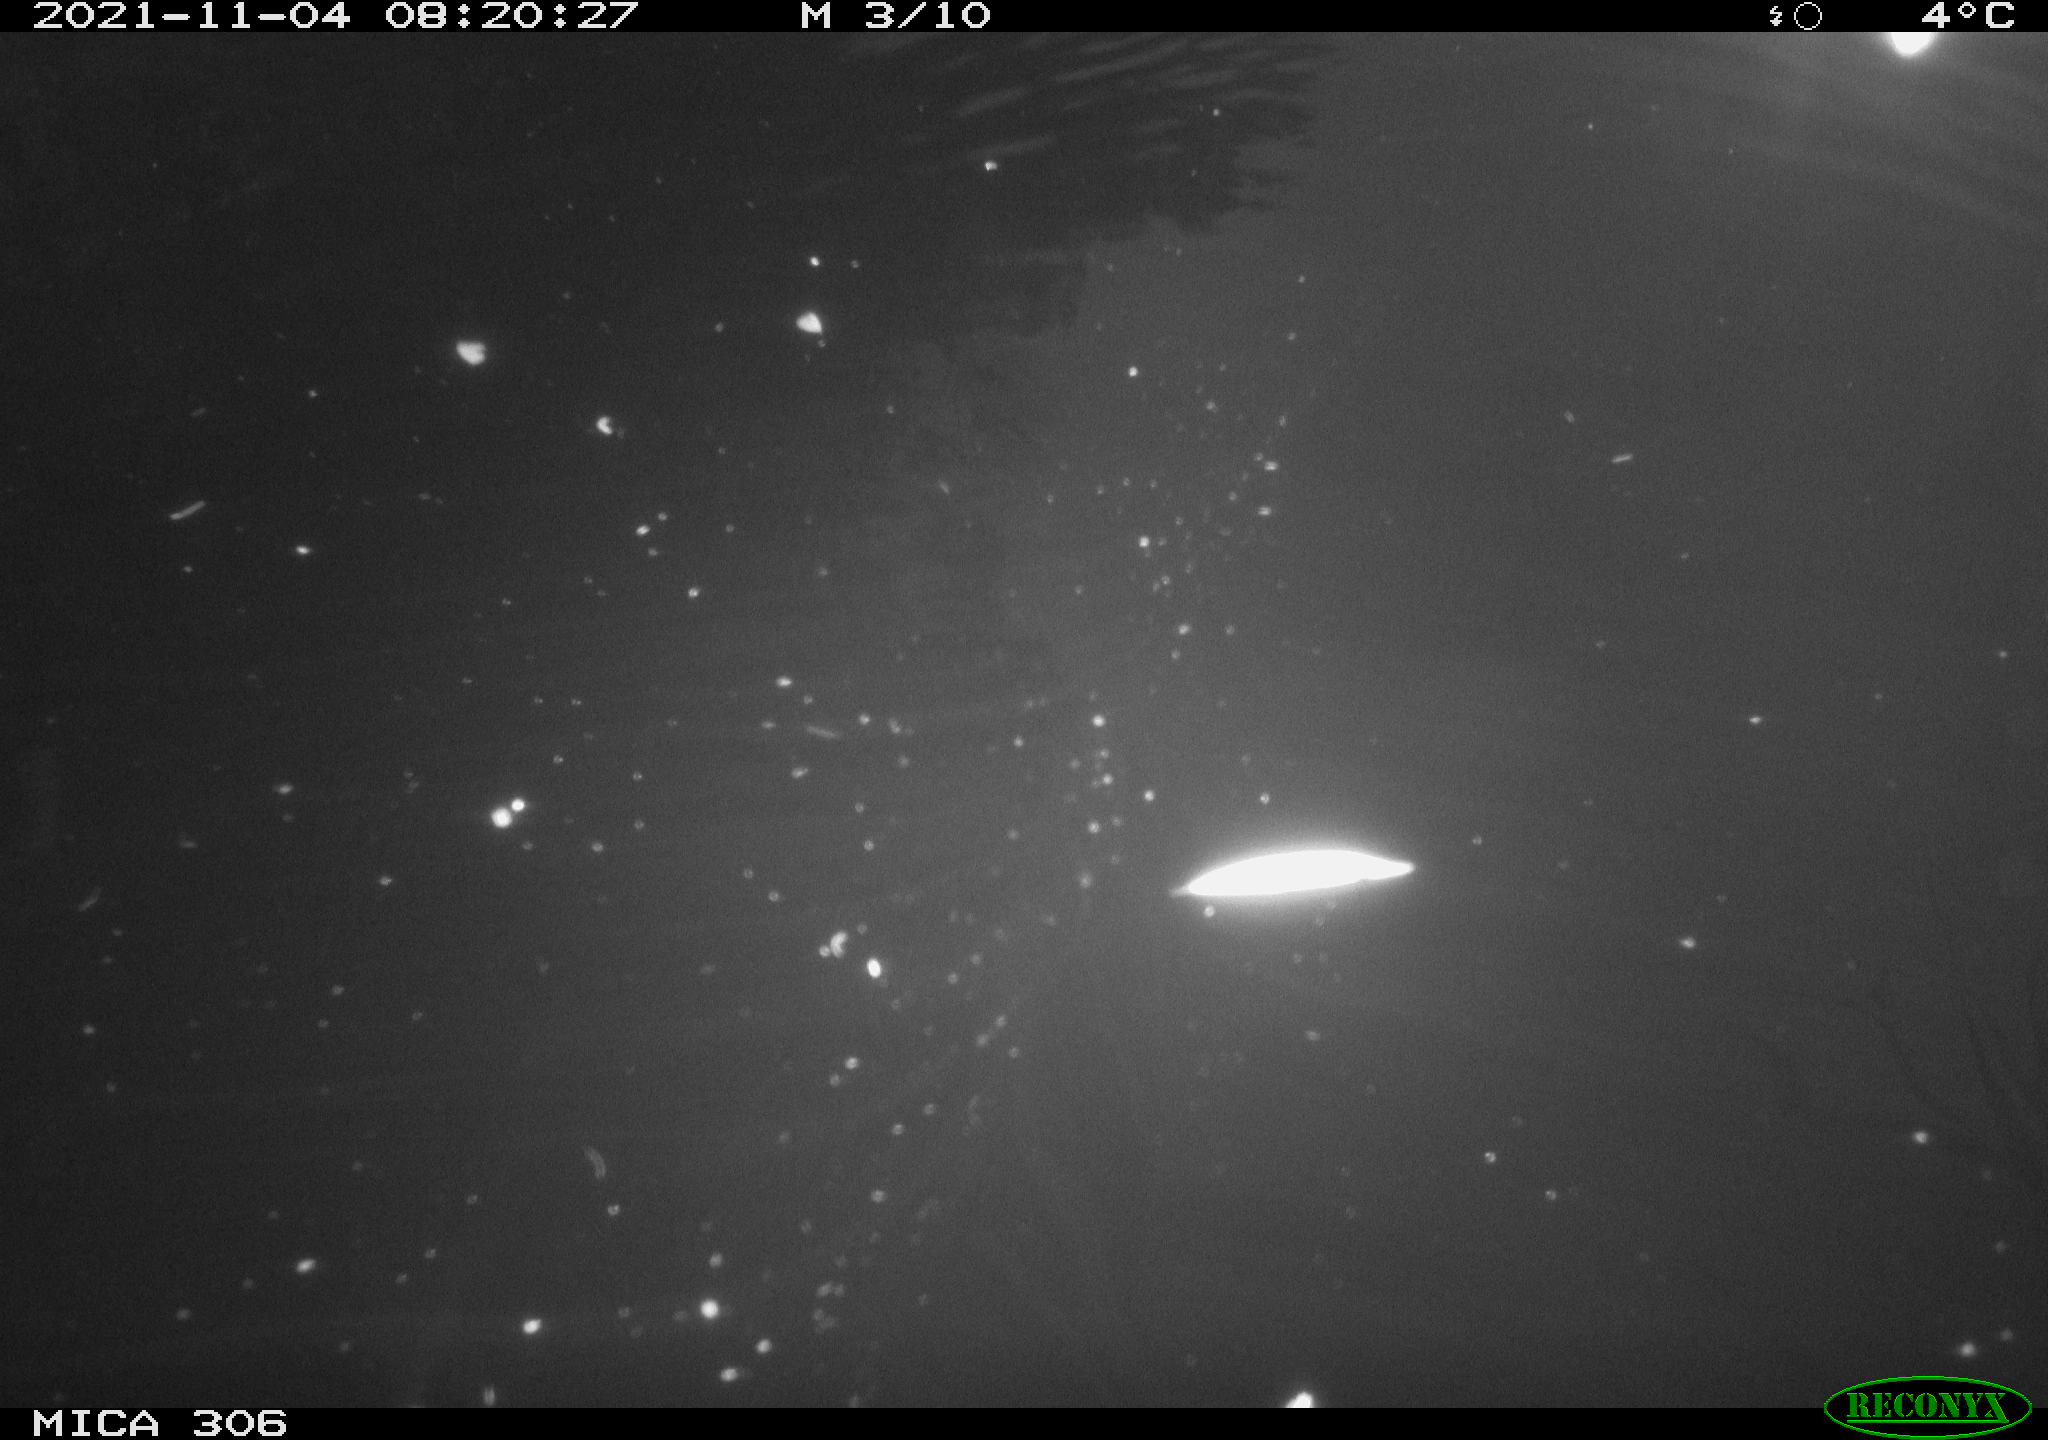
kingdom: Animalia
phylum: Chordata
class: Aves
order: Gruiformes
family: Rallidae
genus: Gallinula
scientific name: Gallinula chloropus
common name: Common moorhen
